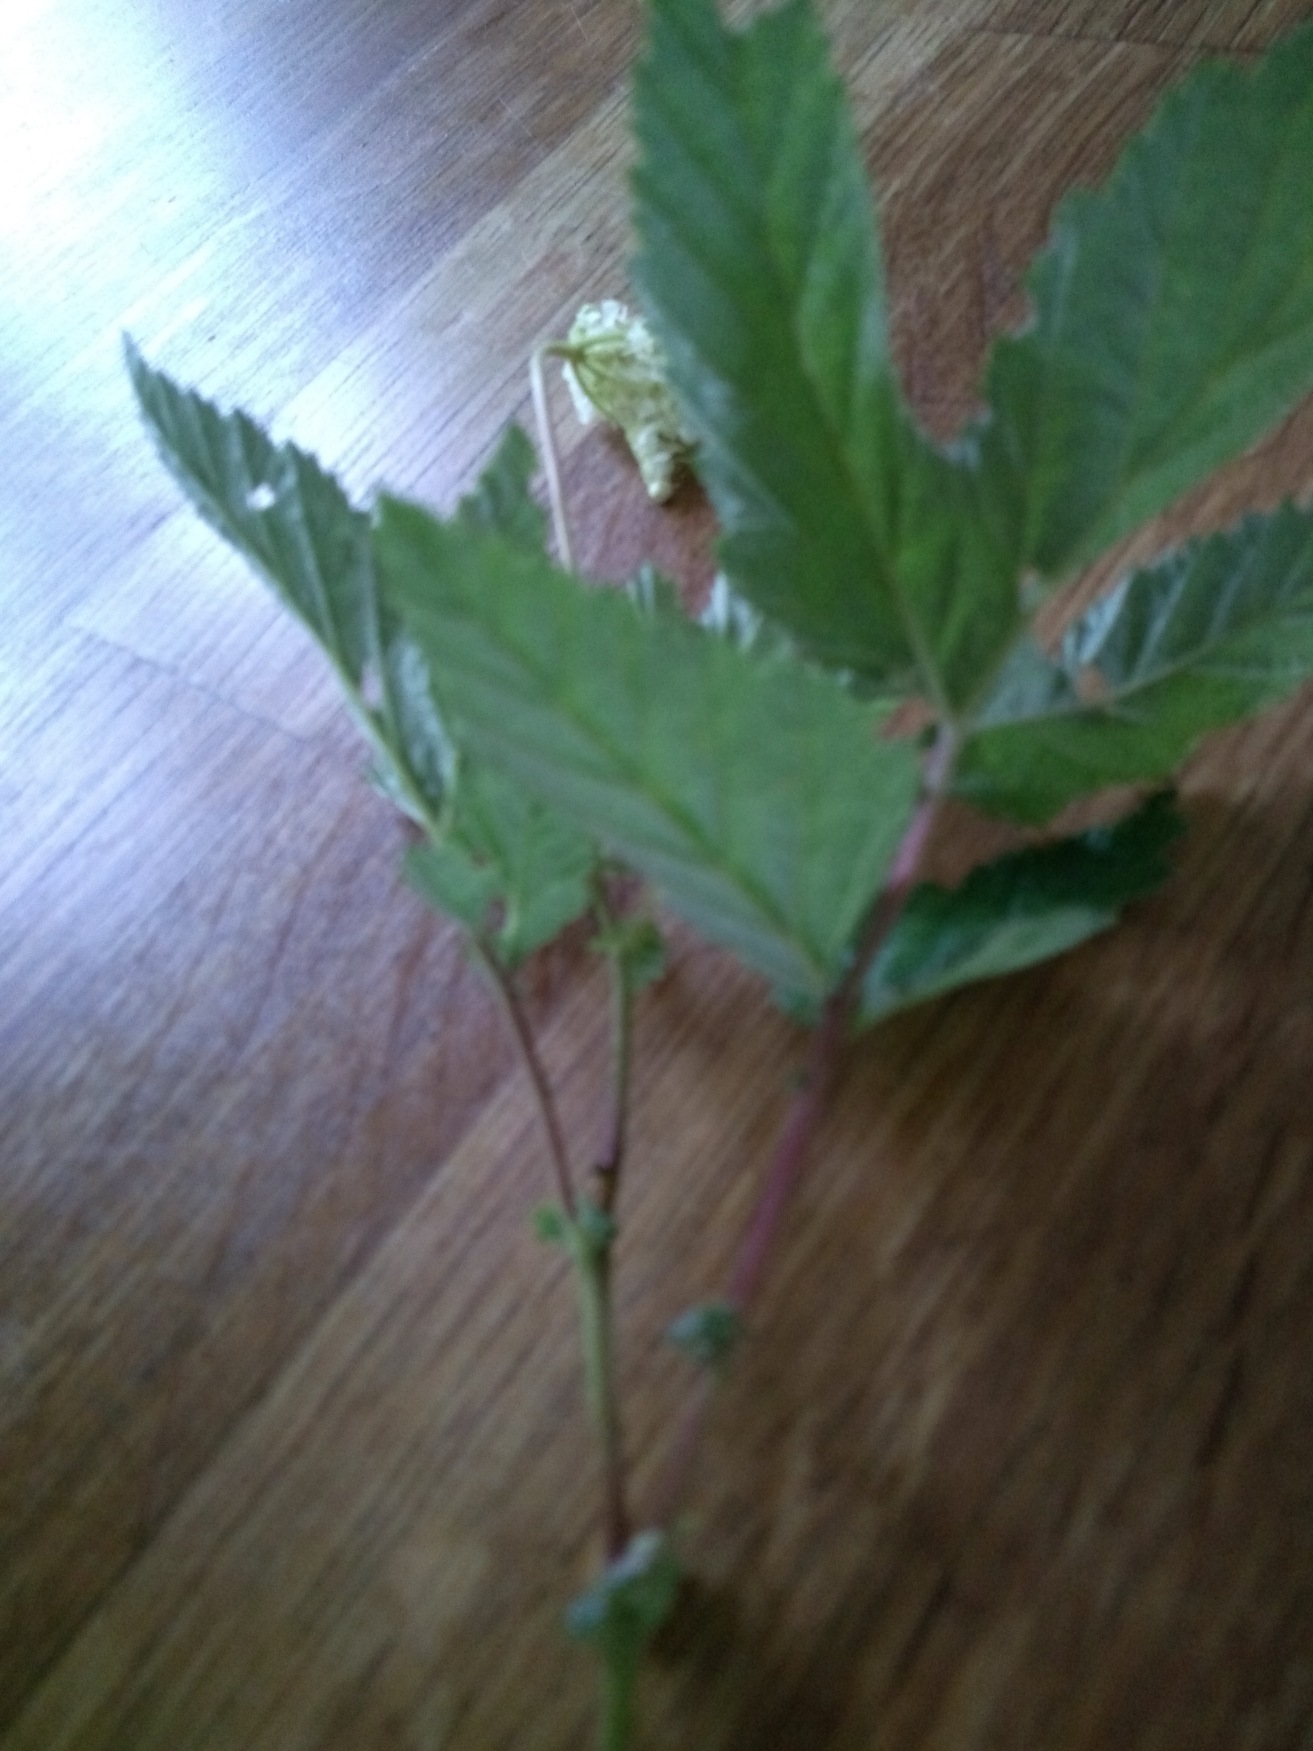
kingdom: Plantae
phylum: Tracheophyta
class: Magnoliopsida
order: Rosales
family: Rosaceae
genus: Filipendula
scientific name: Filipendula ulmaria
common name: Almindelig mjødurt
